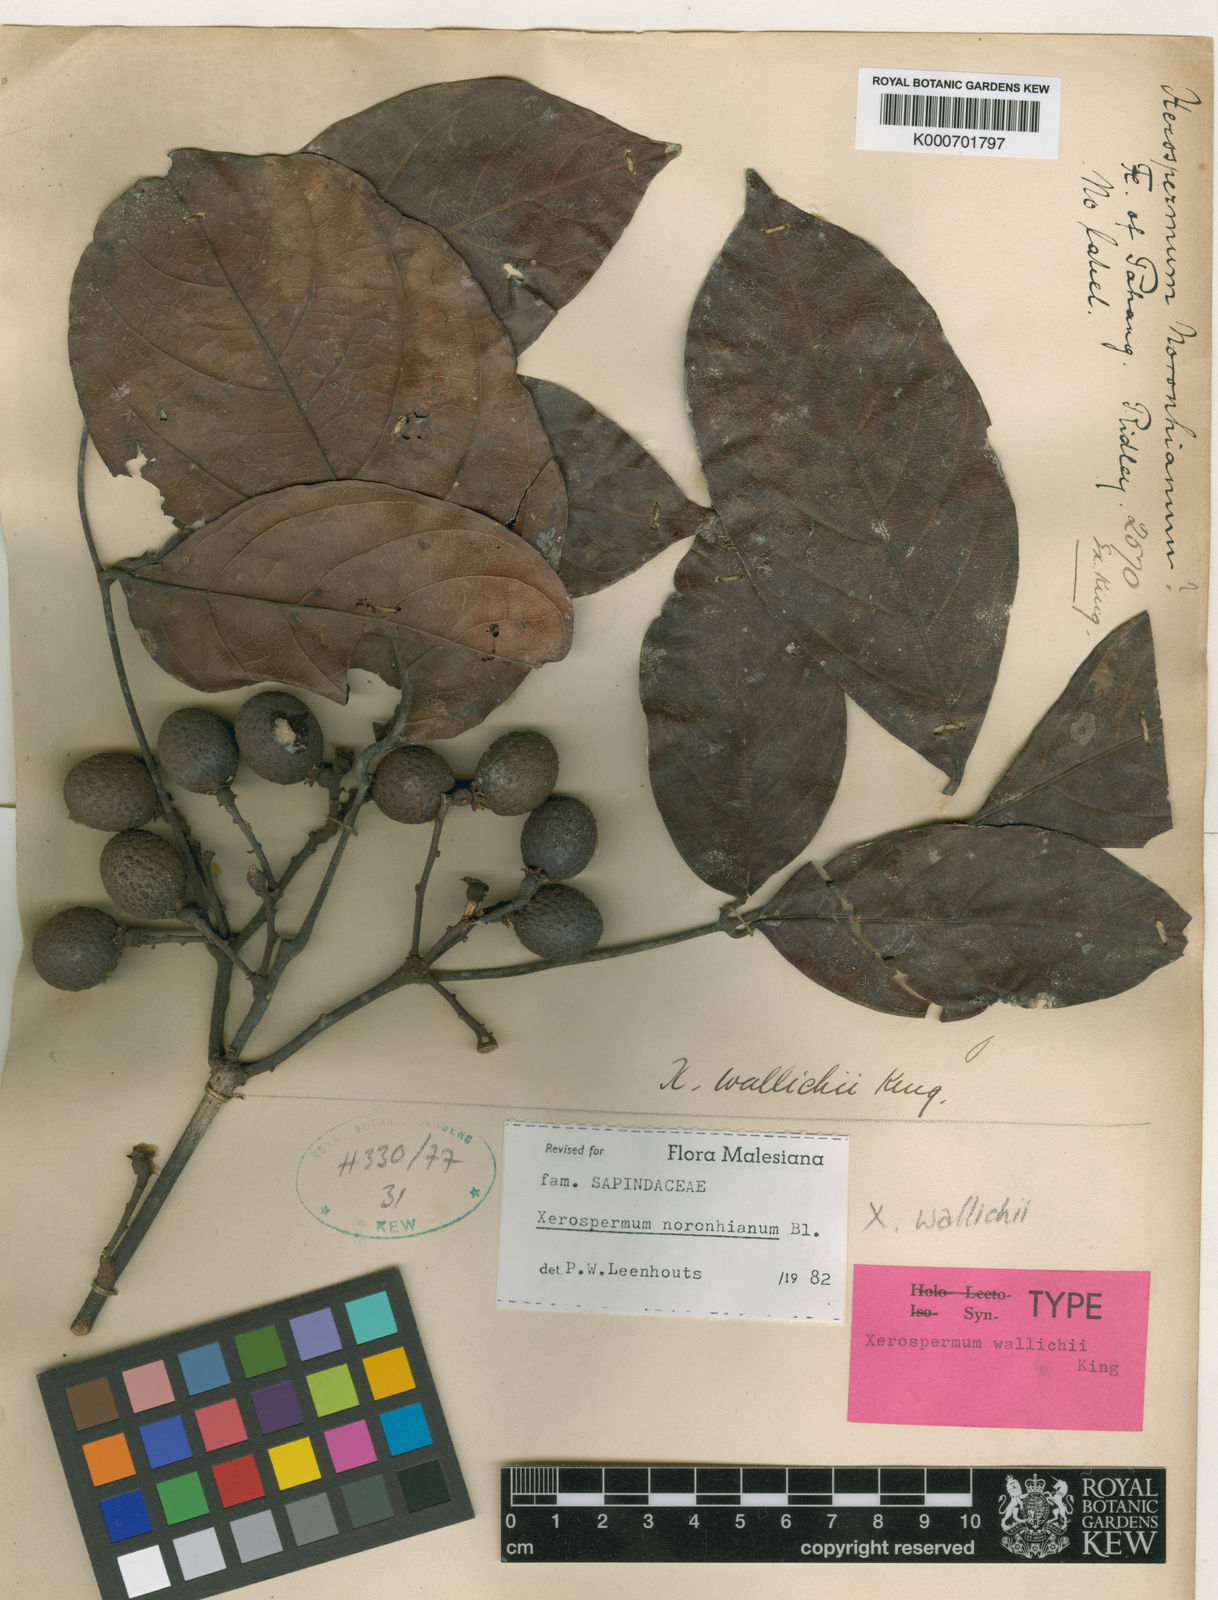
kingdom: Plantae
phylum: Tracheophyta
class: Magnoliopsida
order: Sapindales
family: Sapindaceae
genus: Xerospermum
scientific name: Xerospermum noronhianum
